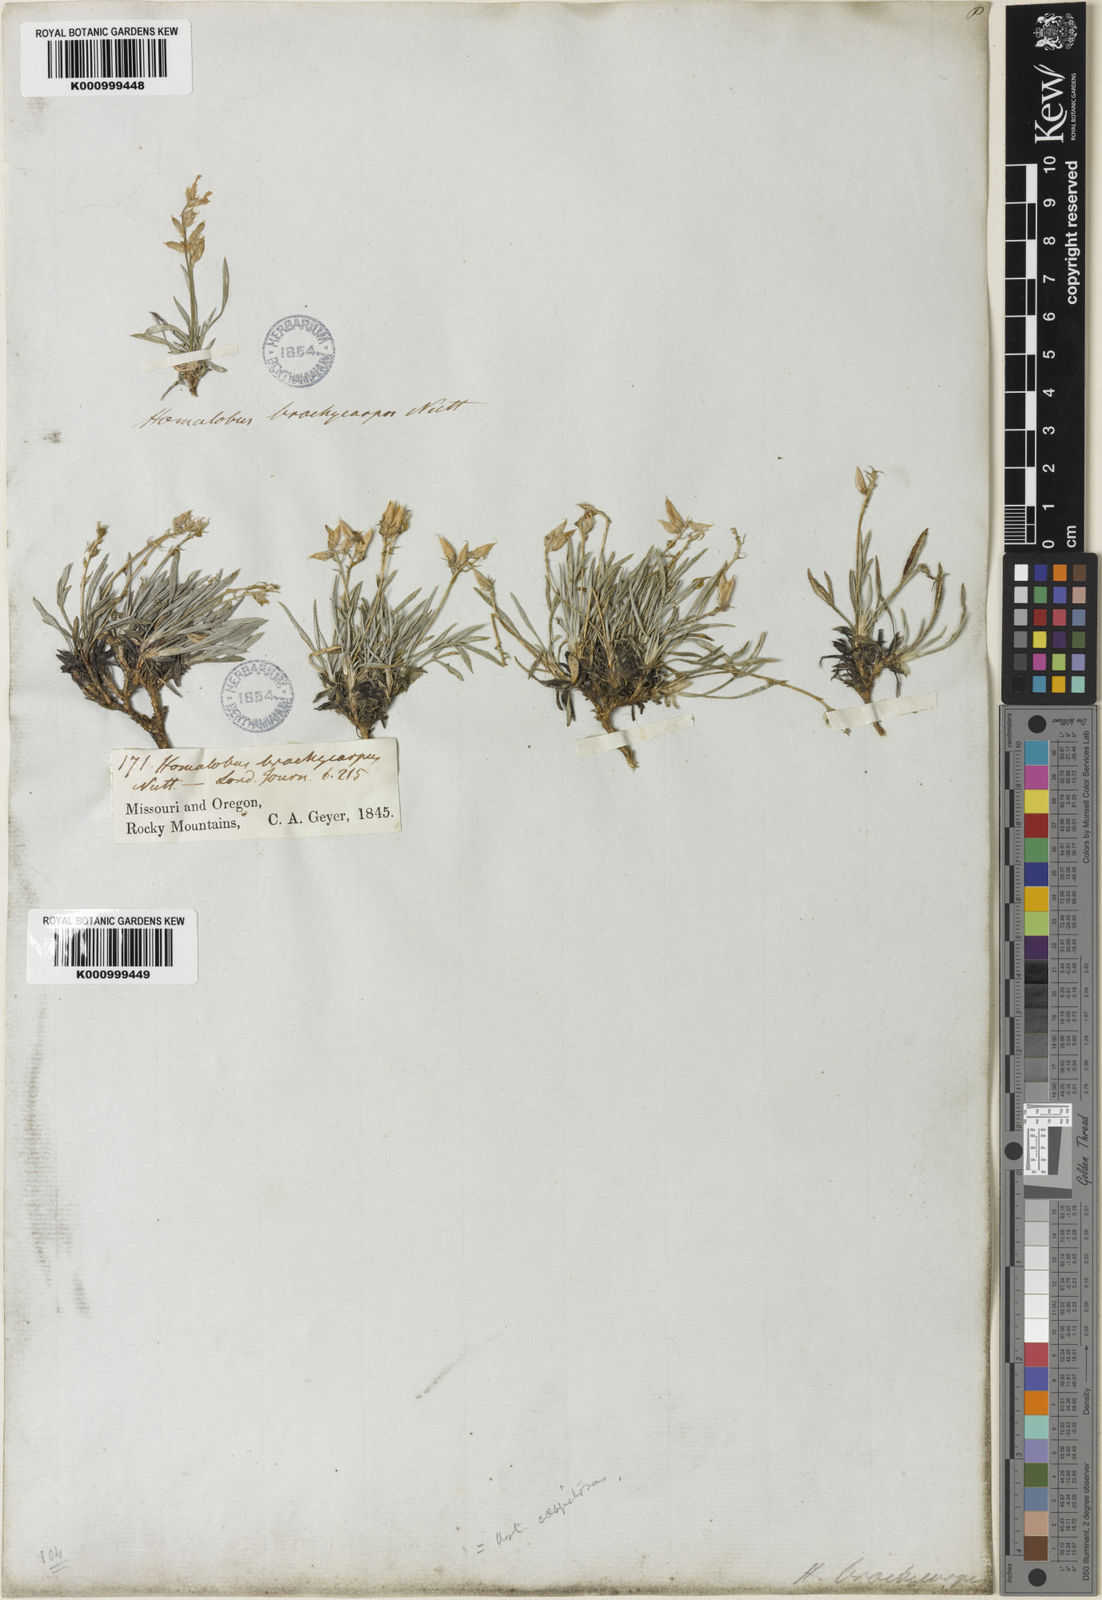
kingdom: Plantae
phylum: Tracheophyta
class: Magnoliopsida
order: Fabales
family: Fabaceae
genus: Oxytropis
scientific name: Oxytropis caespitosa
